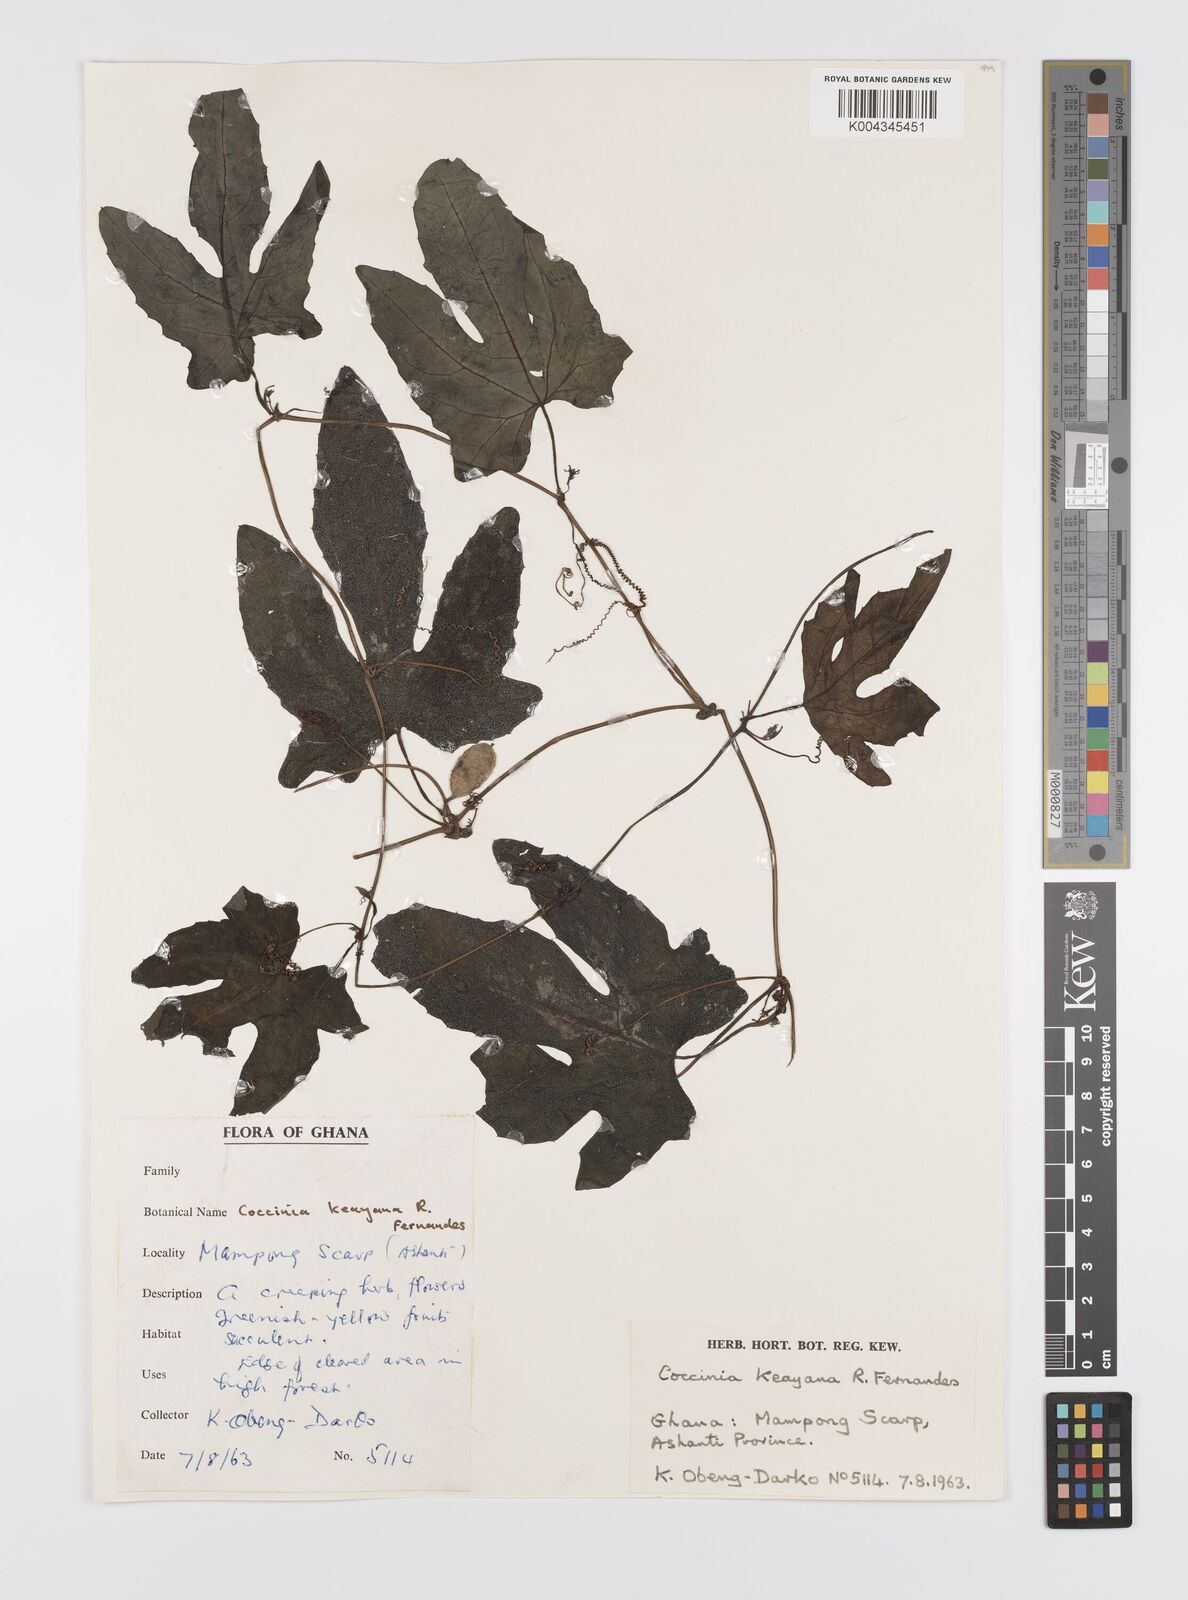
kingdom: Plantae
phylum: Tracheophyta
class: Magnoliopsida
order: Cucurbitales
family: Cucurbitaceae
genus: Coccinia
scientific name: Coccinia keayana
